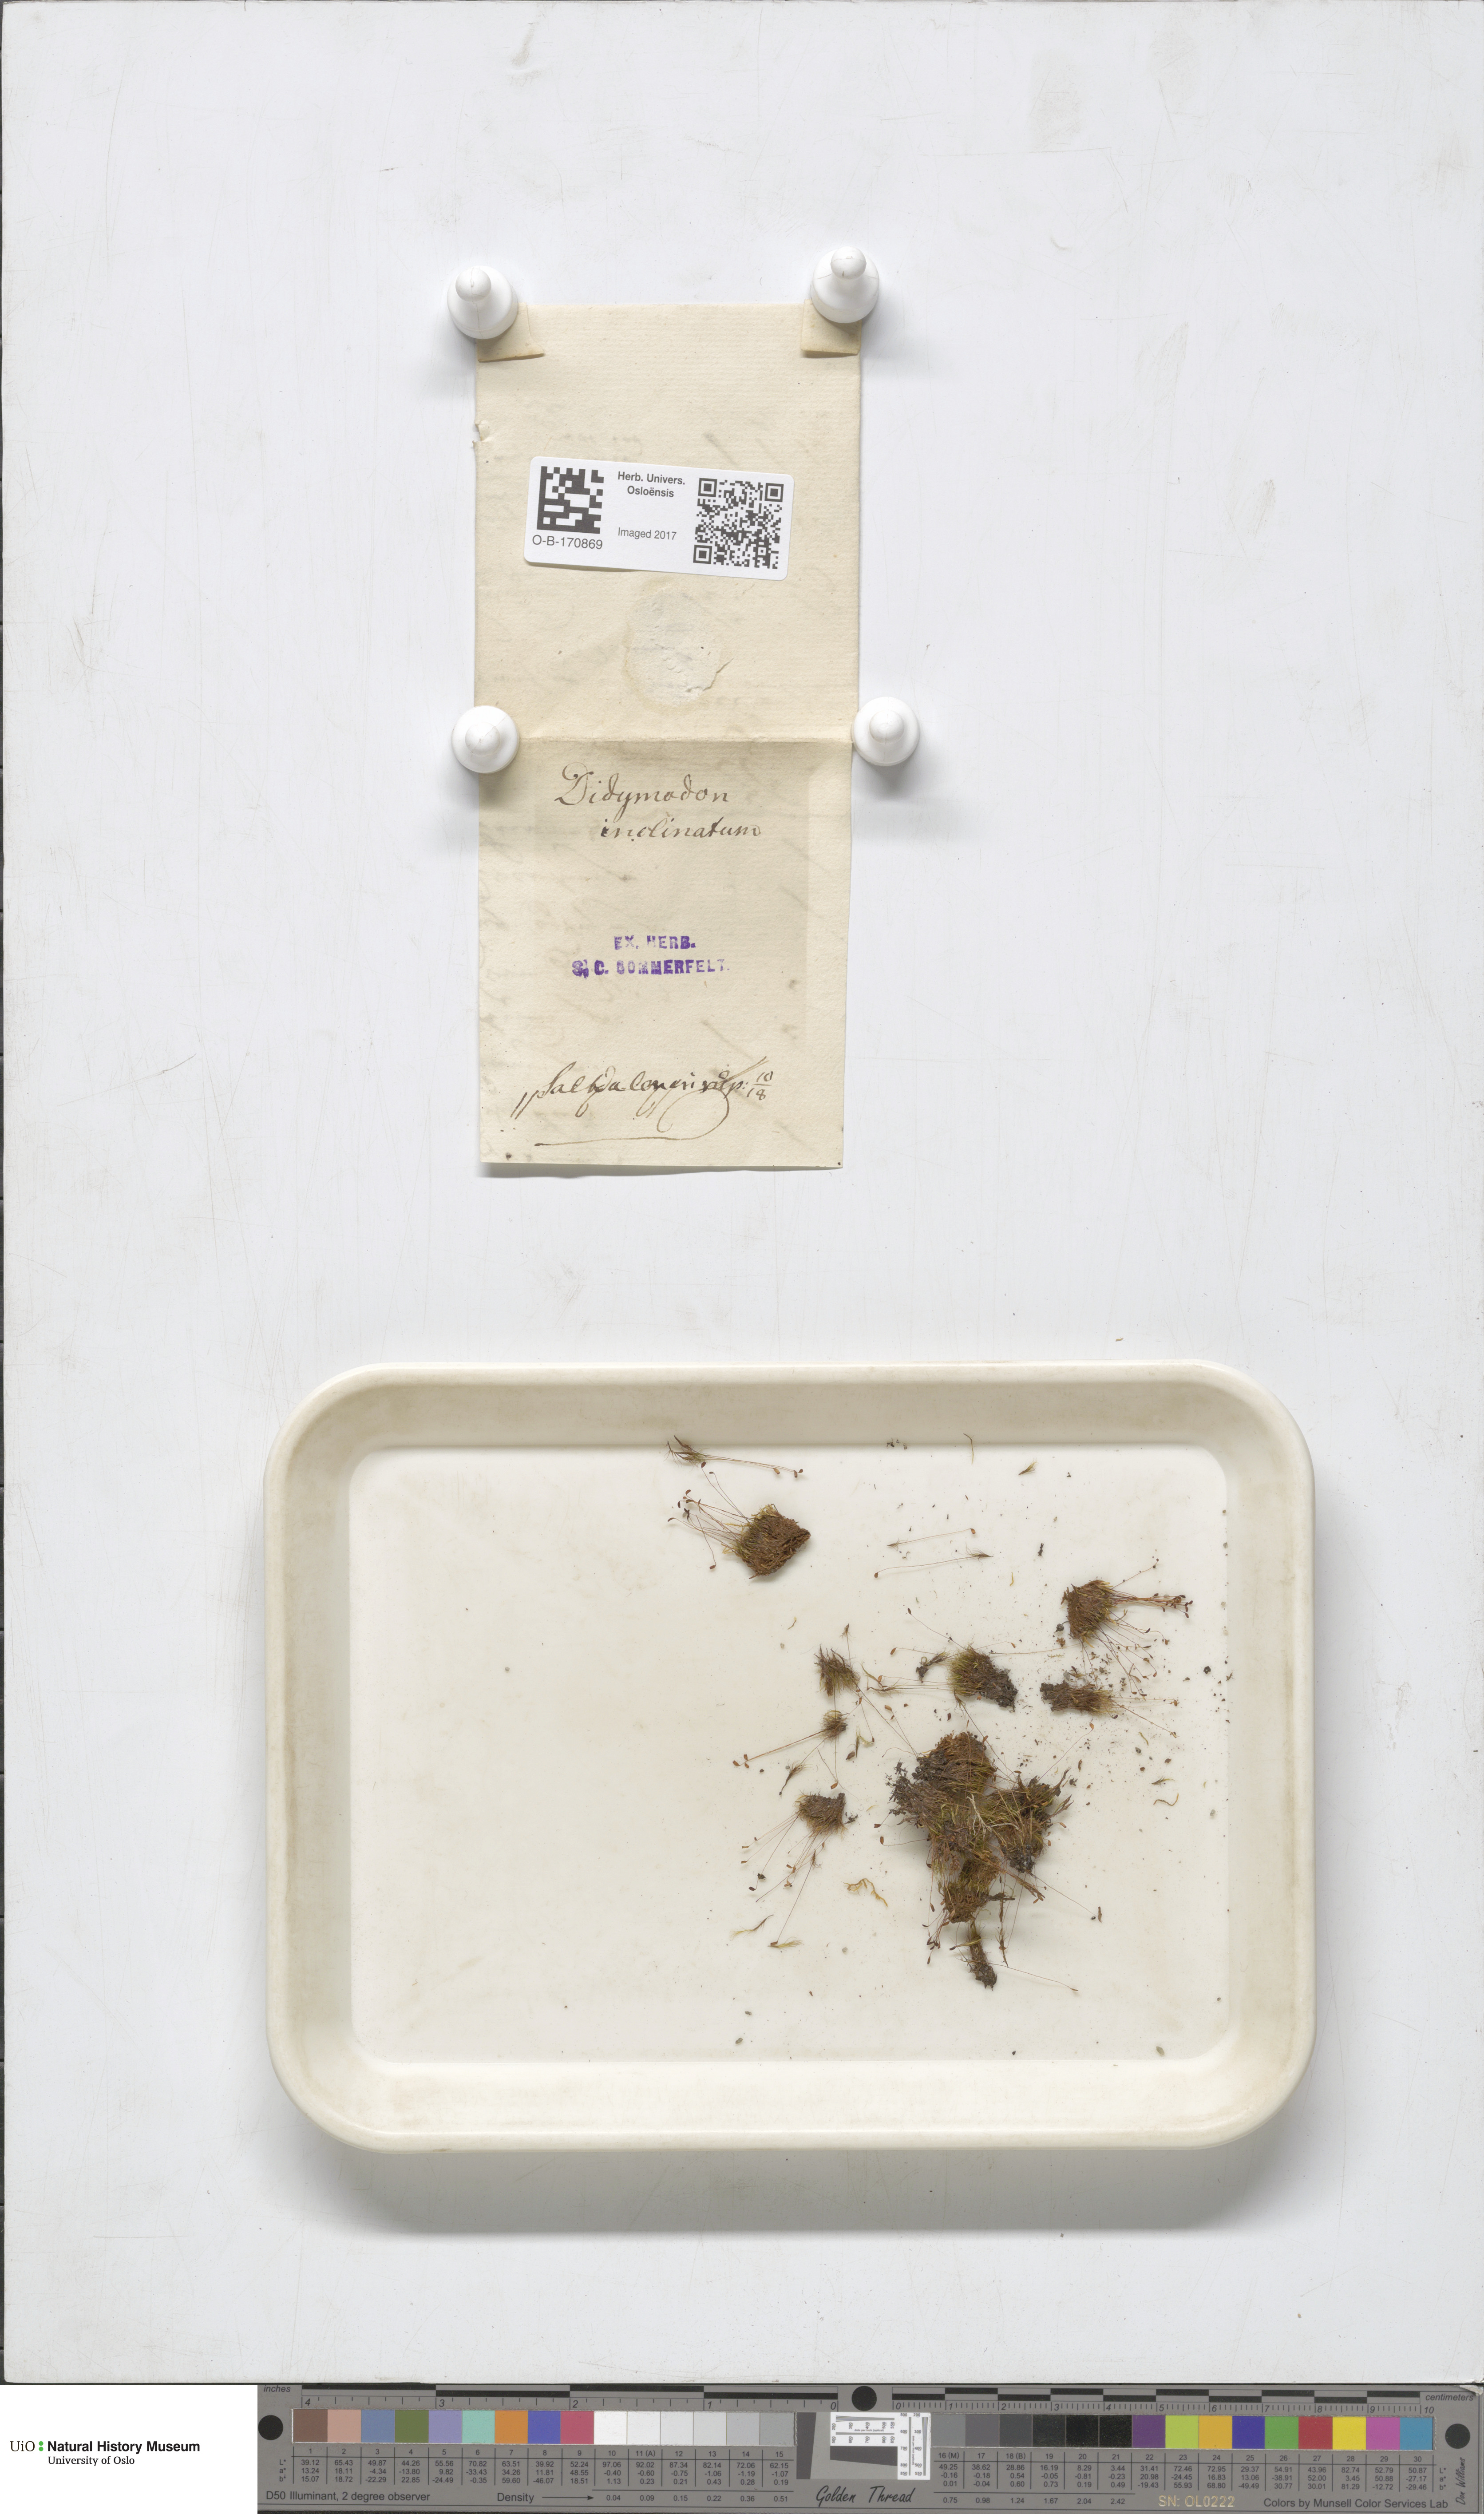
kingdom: Plantae
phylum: Bryophyta
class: Bryopsida
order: Scouleriales
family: Distichiaceae
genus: Distichium
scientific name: Distichium inclinatum
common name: Inclined iris moss
